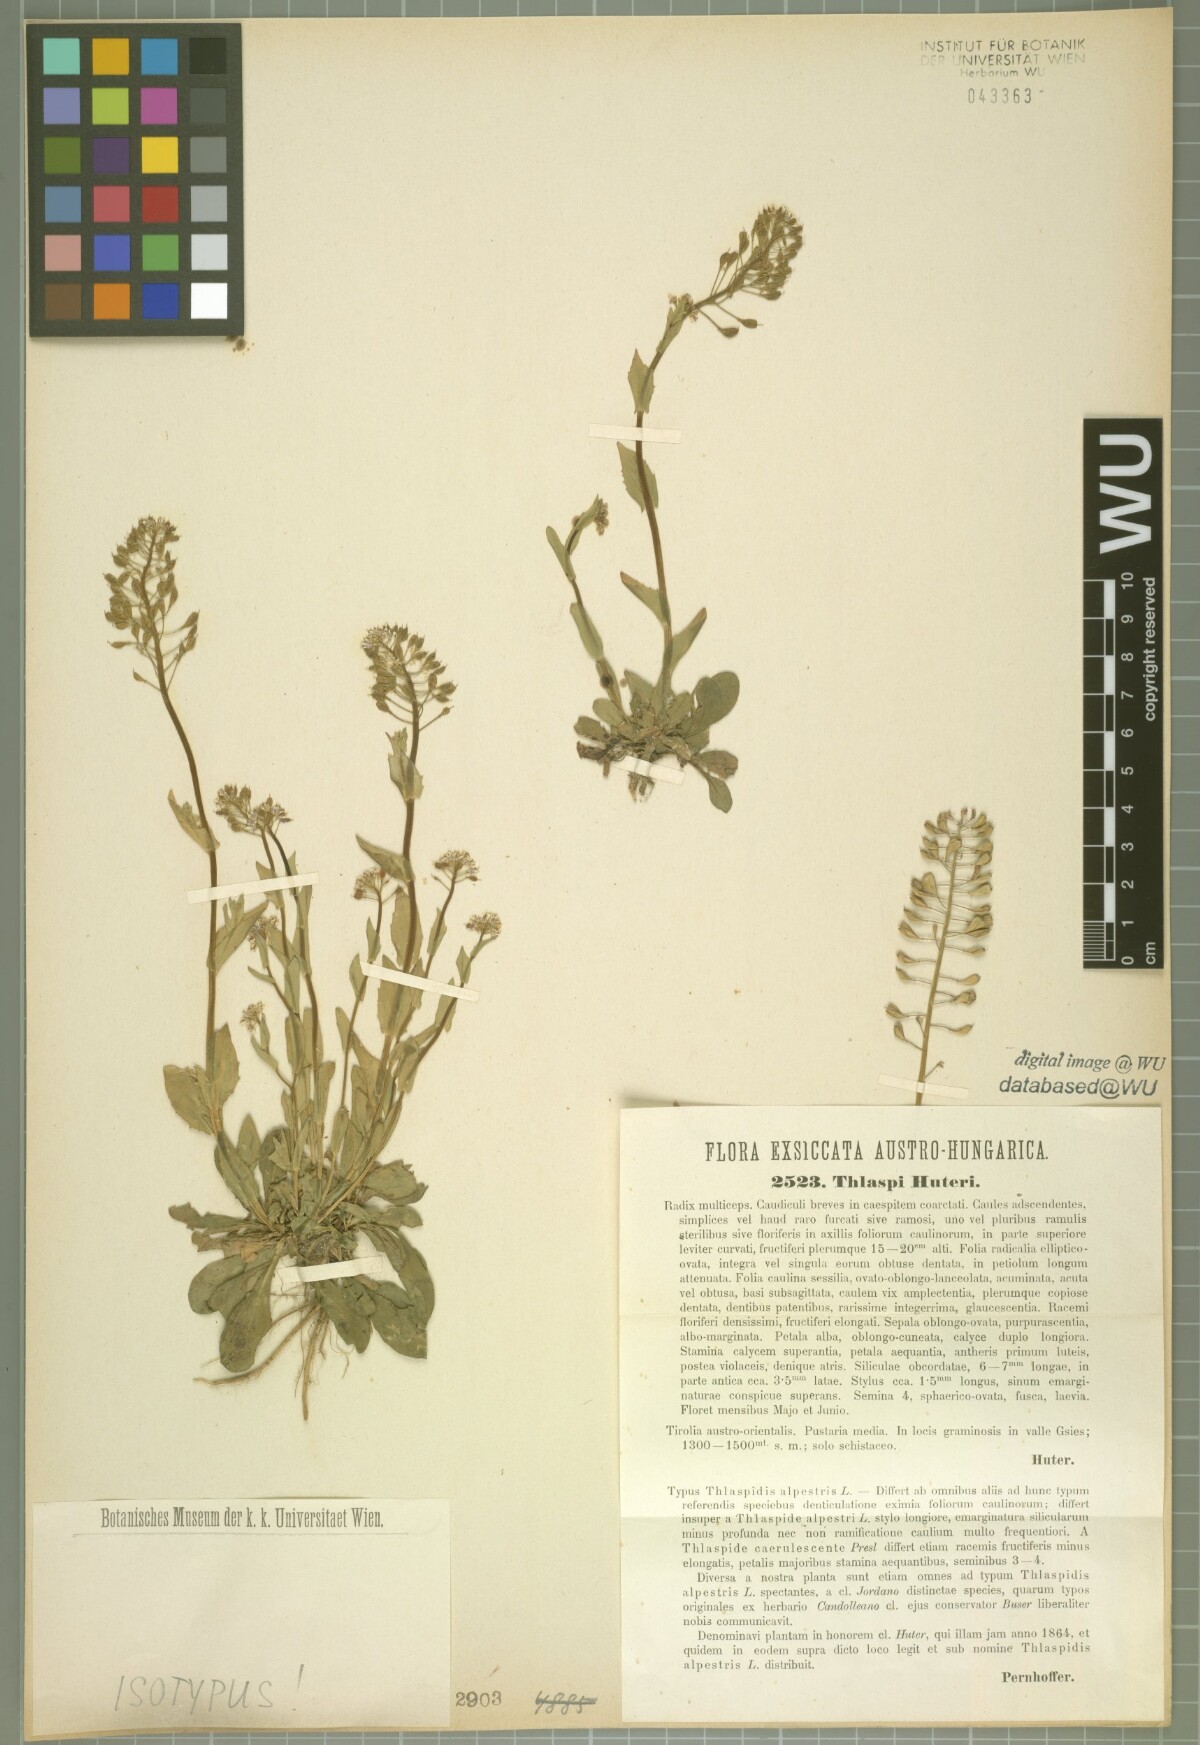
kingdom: Plantae
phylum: Tracheophyta
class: Magnoliopsida
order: Brassicales
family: Brassicaceae
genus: Noccaea
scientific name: Noccaea brachypetala
